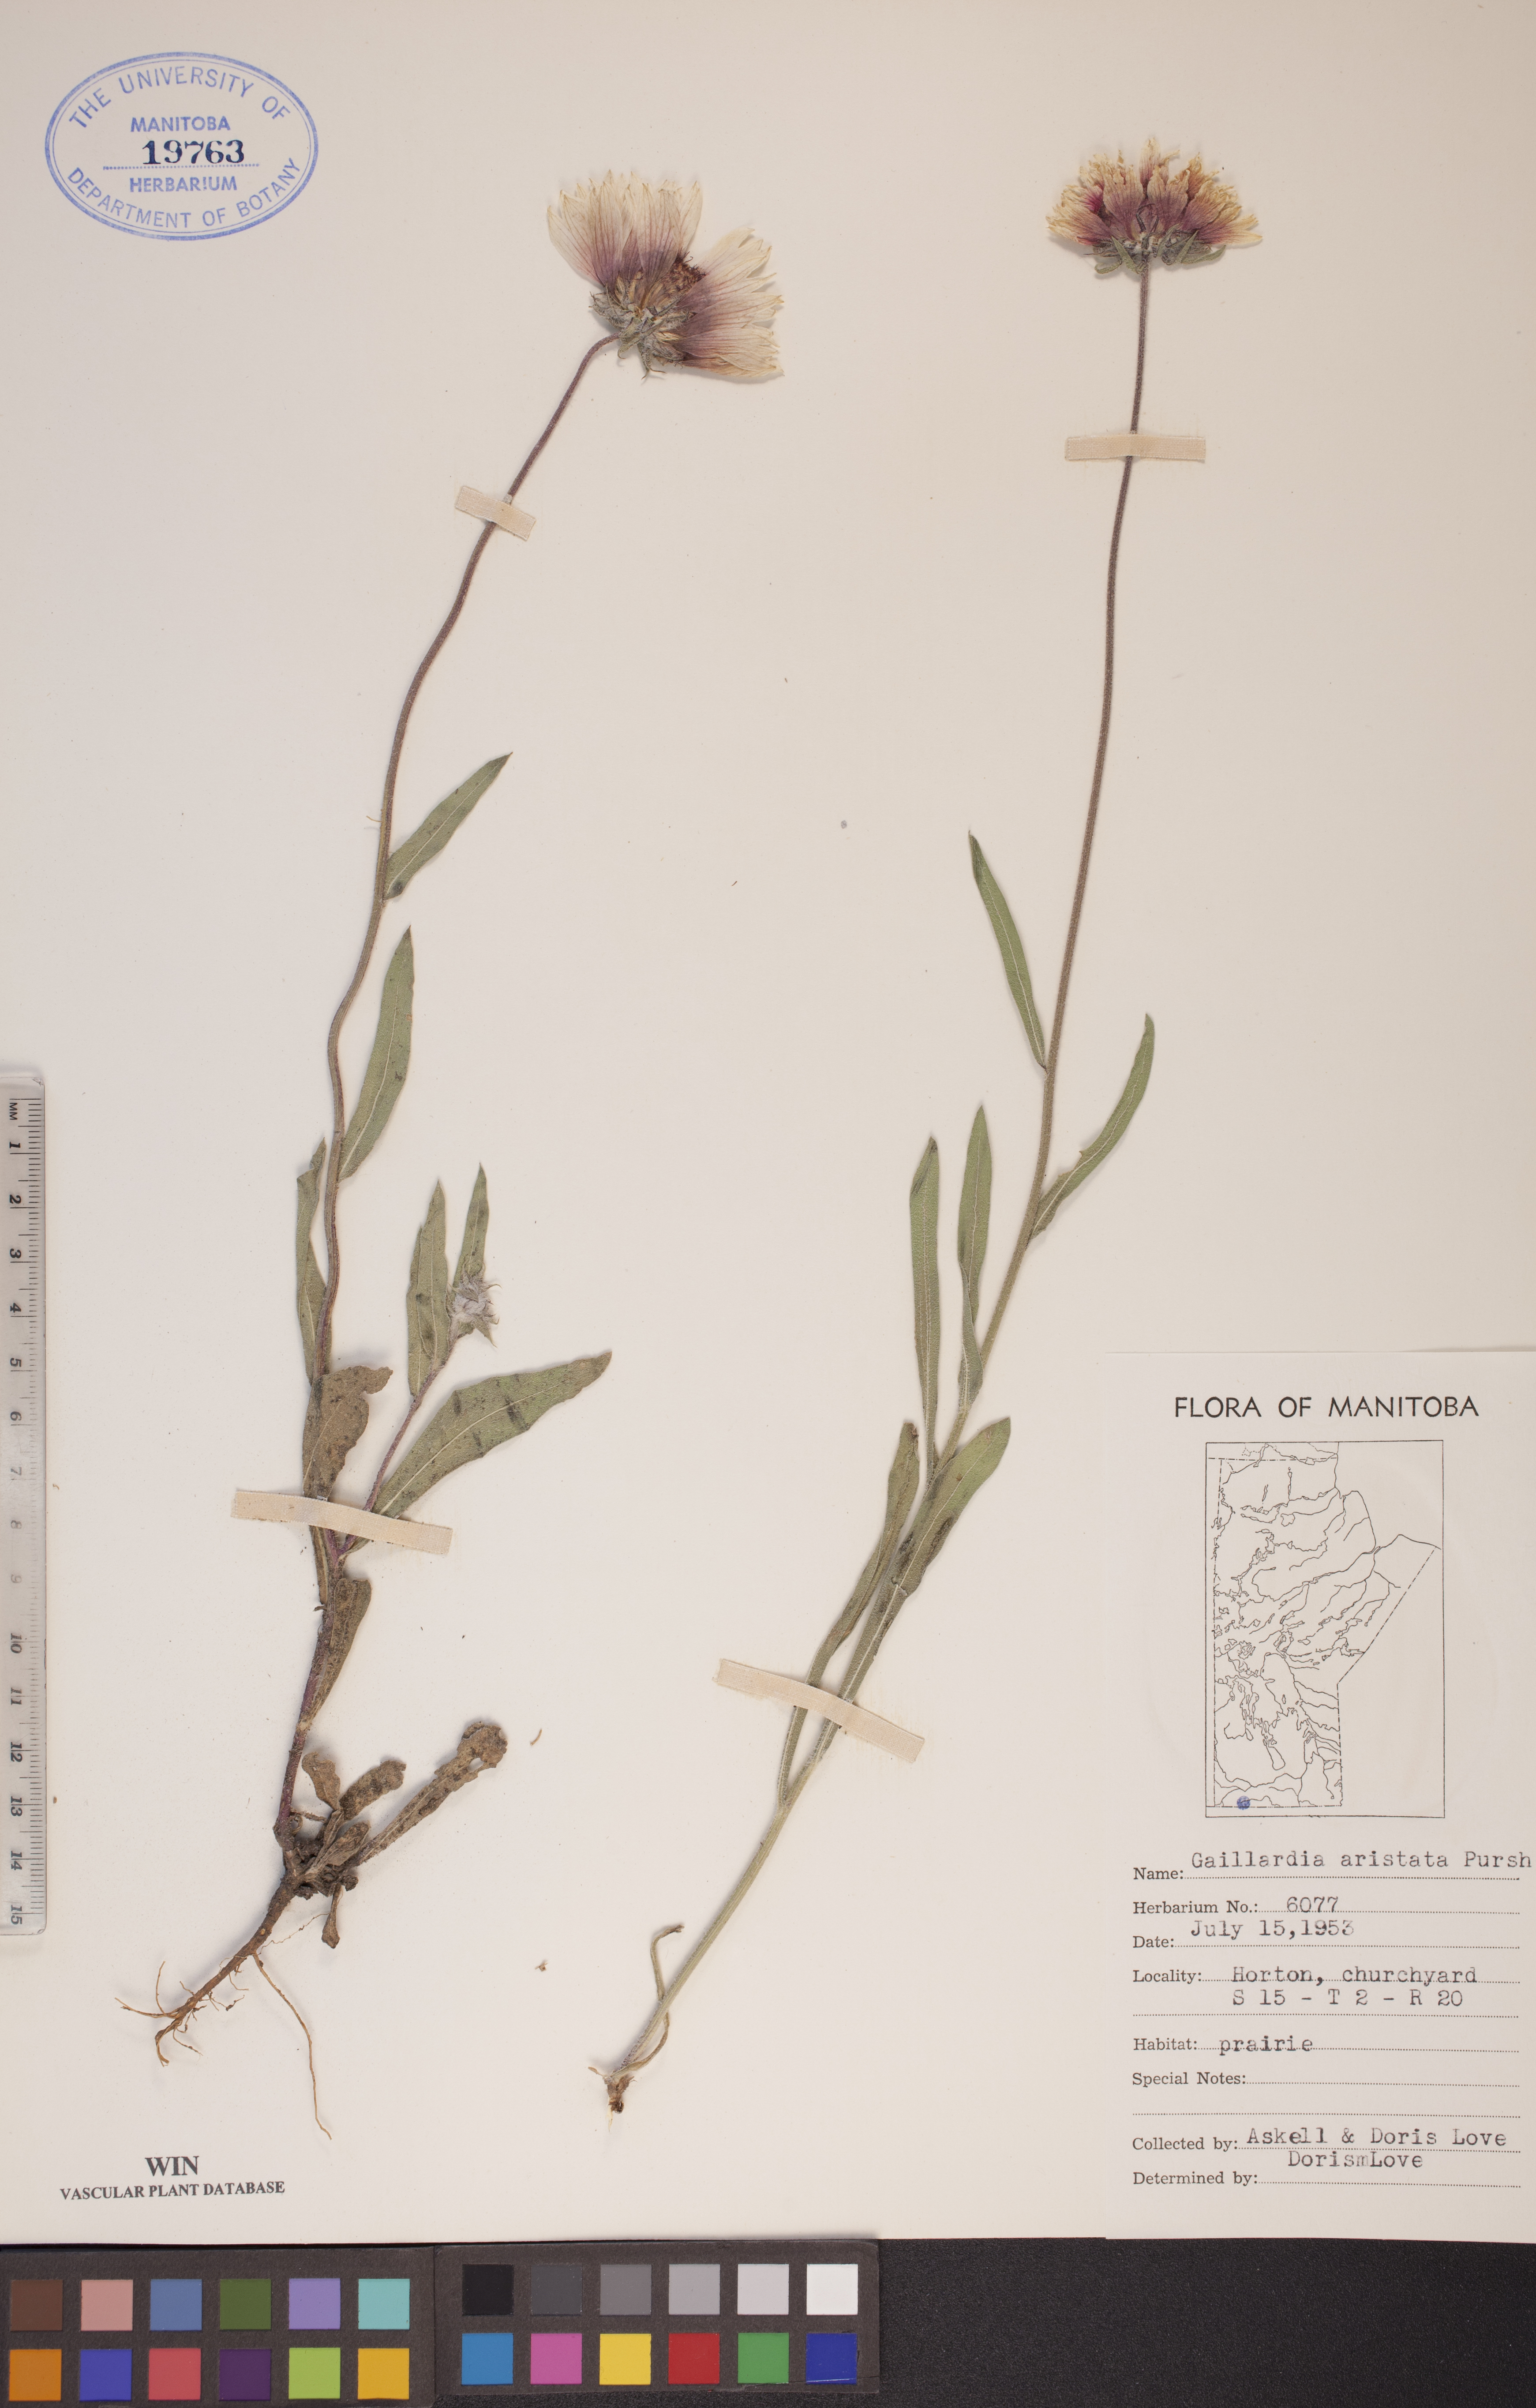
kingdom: Plantae
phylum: Tracheophyta
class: Magnoliopsida
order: Asterales
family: Asteraceae
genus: Gaillardia
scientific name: Gaillardia aristata
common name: Blanket-flower
